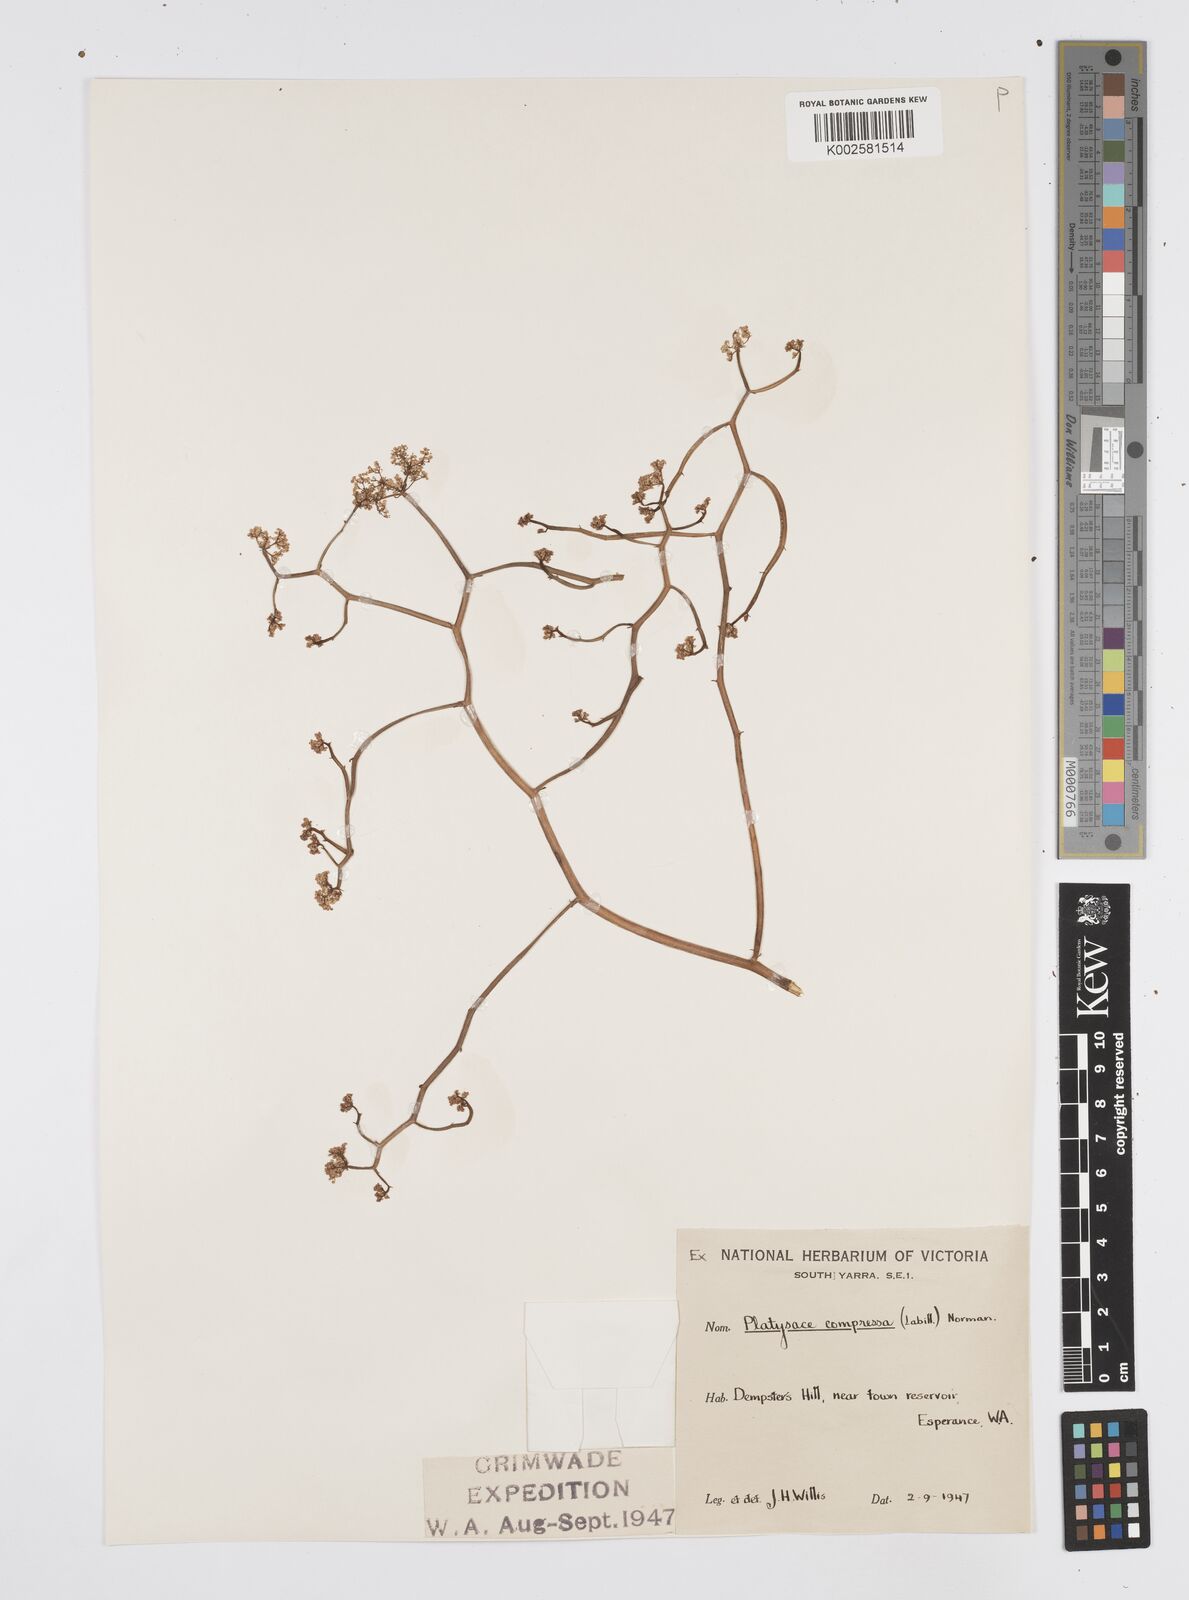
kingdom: Plantae
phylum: Tracheophyta
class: Magnoliopsida
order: Apiales
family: Apiaceae
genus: Centella
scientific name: Centella
